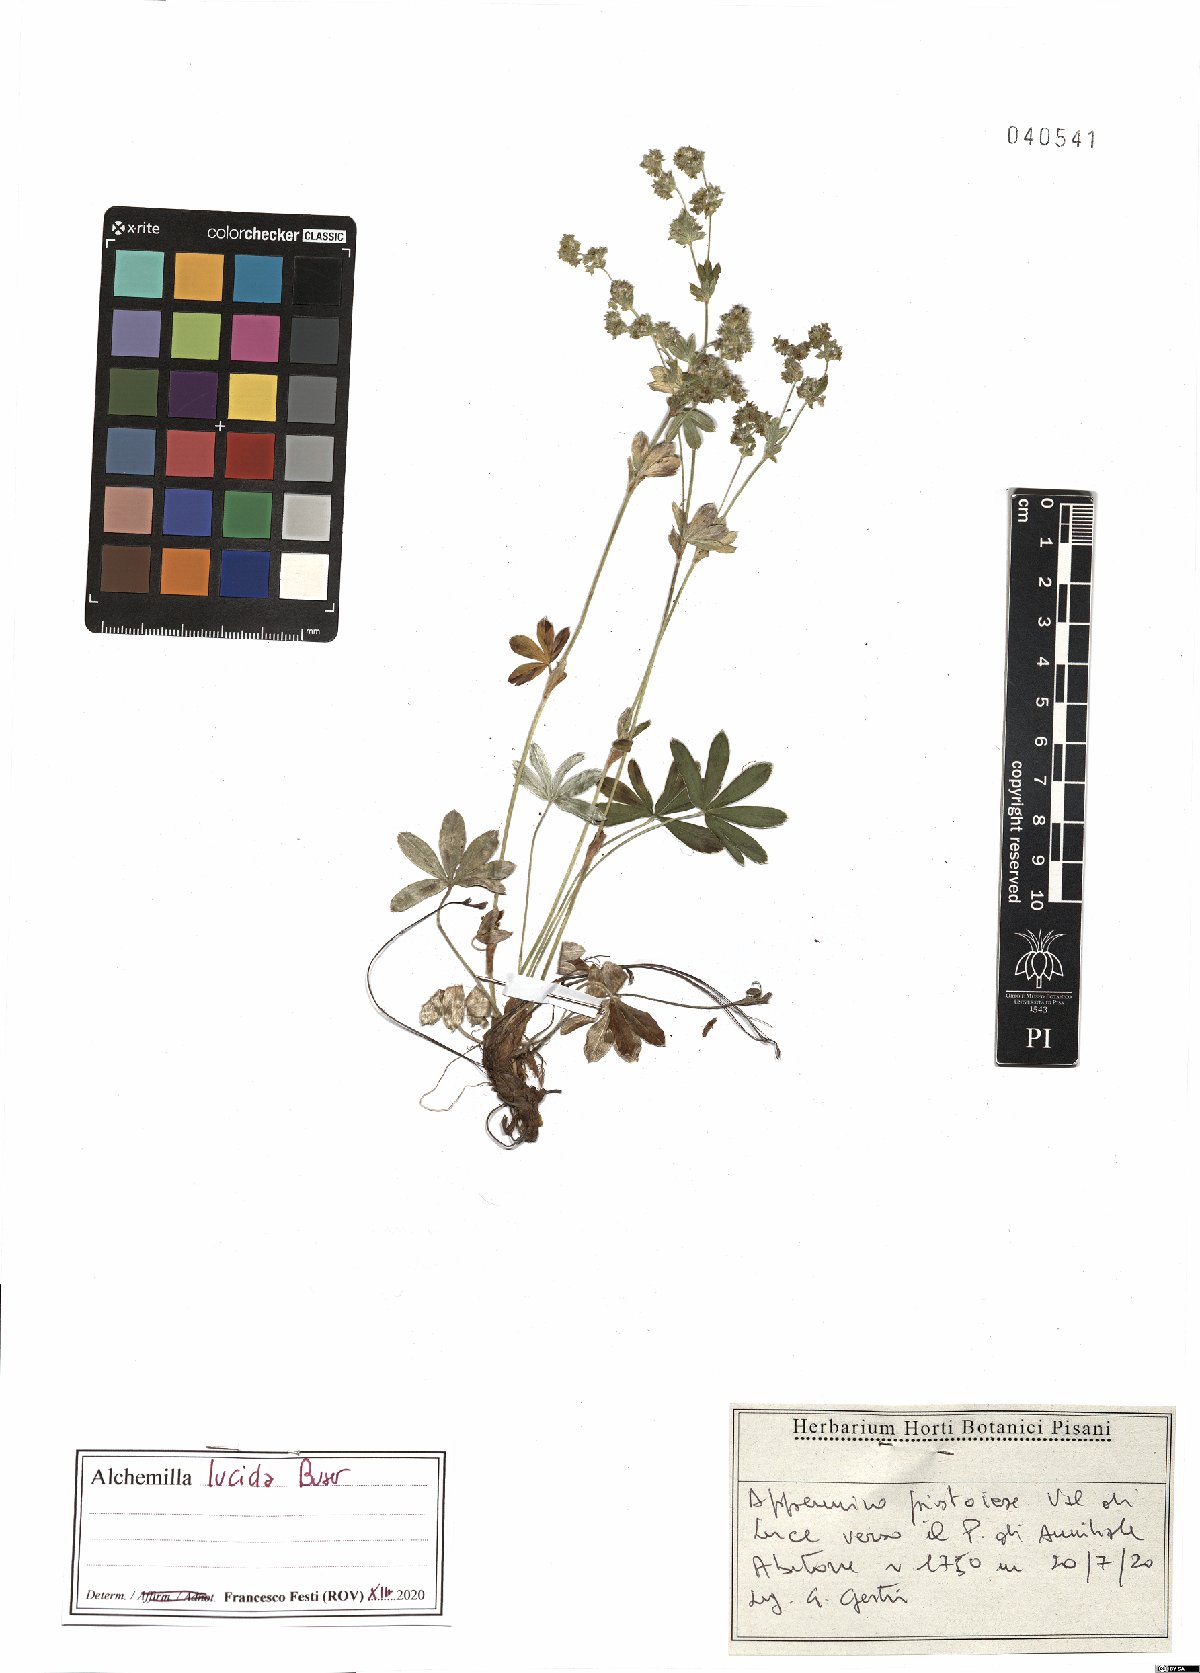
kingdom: Plantae
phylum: Tracheophyta
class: Magnoliopsida
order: Rosales
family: Rosaceae
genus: Alchemilla
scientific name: Alchemilla lucida
